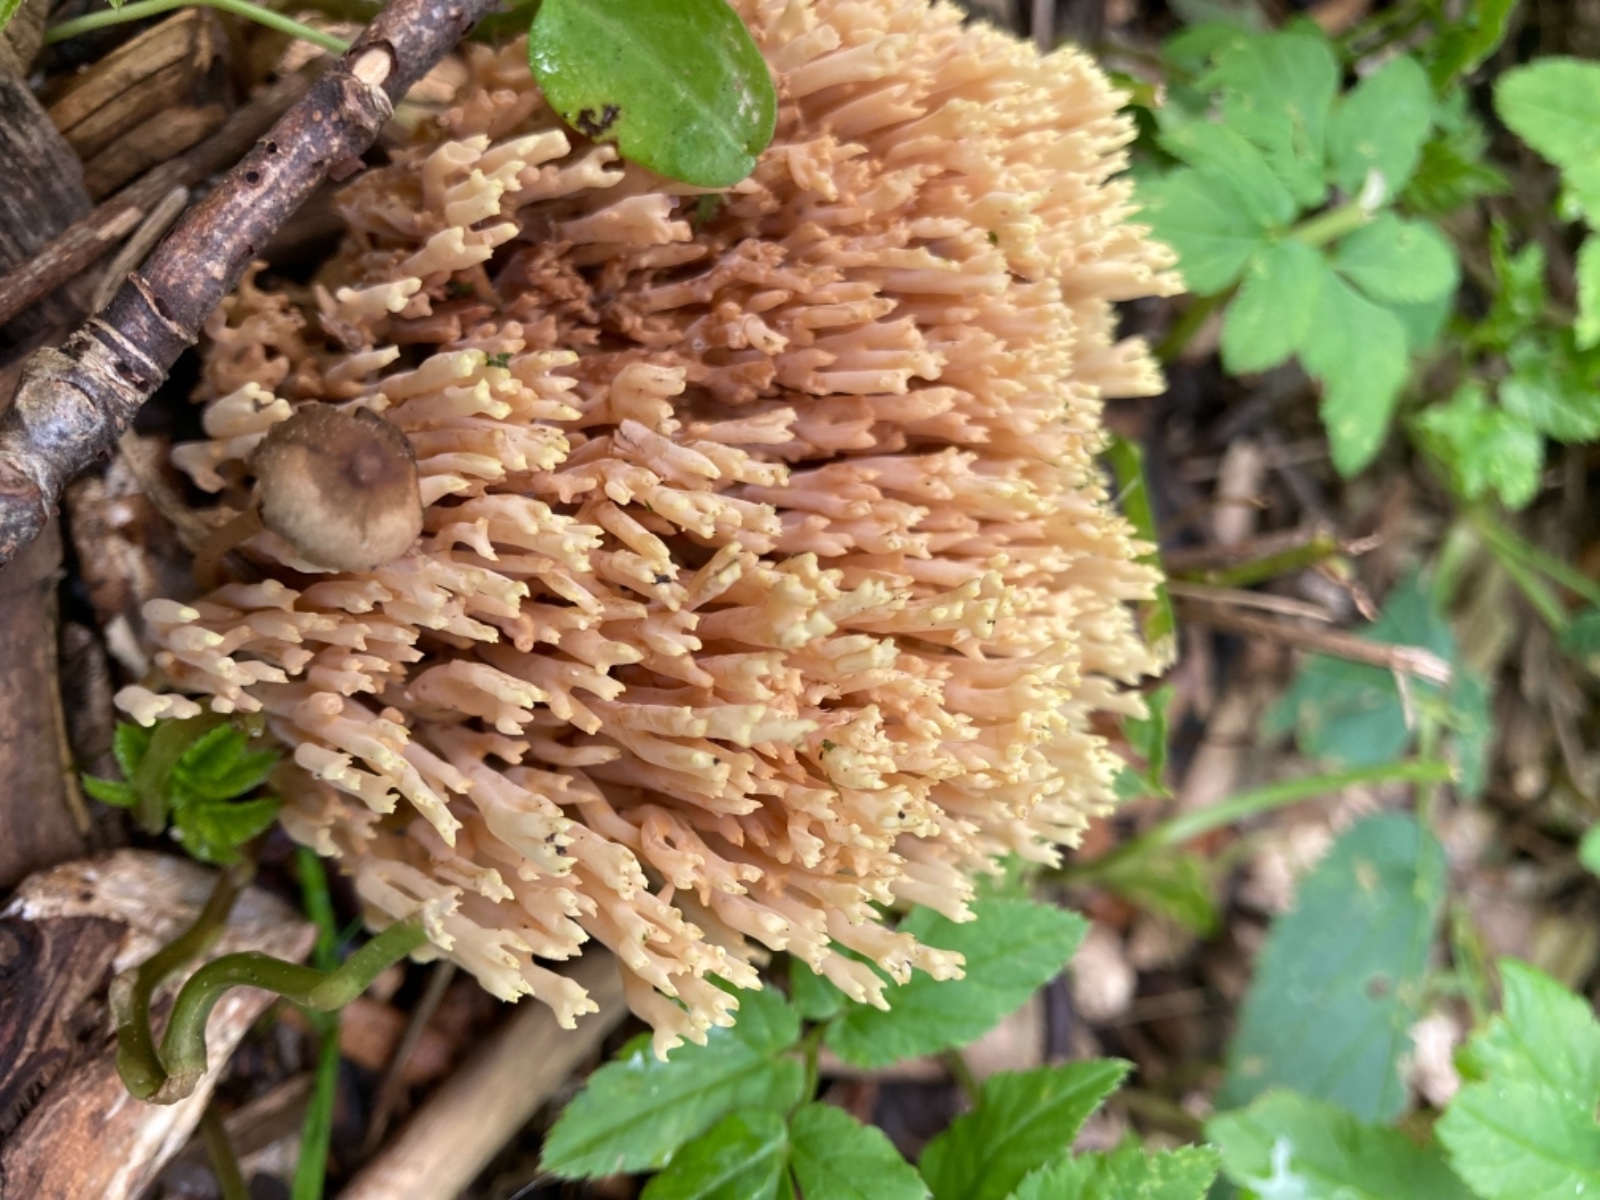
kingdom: Fungi
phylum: Basidiomycota
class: Agaricomycetes
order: Gomphales
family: Gomphaceae
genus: Ramaria
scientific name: Ramaria stricta
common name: rank koralsvamp
